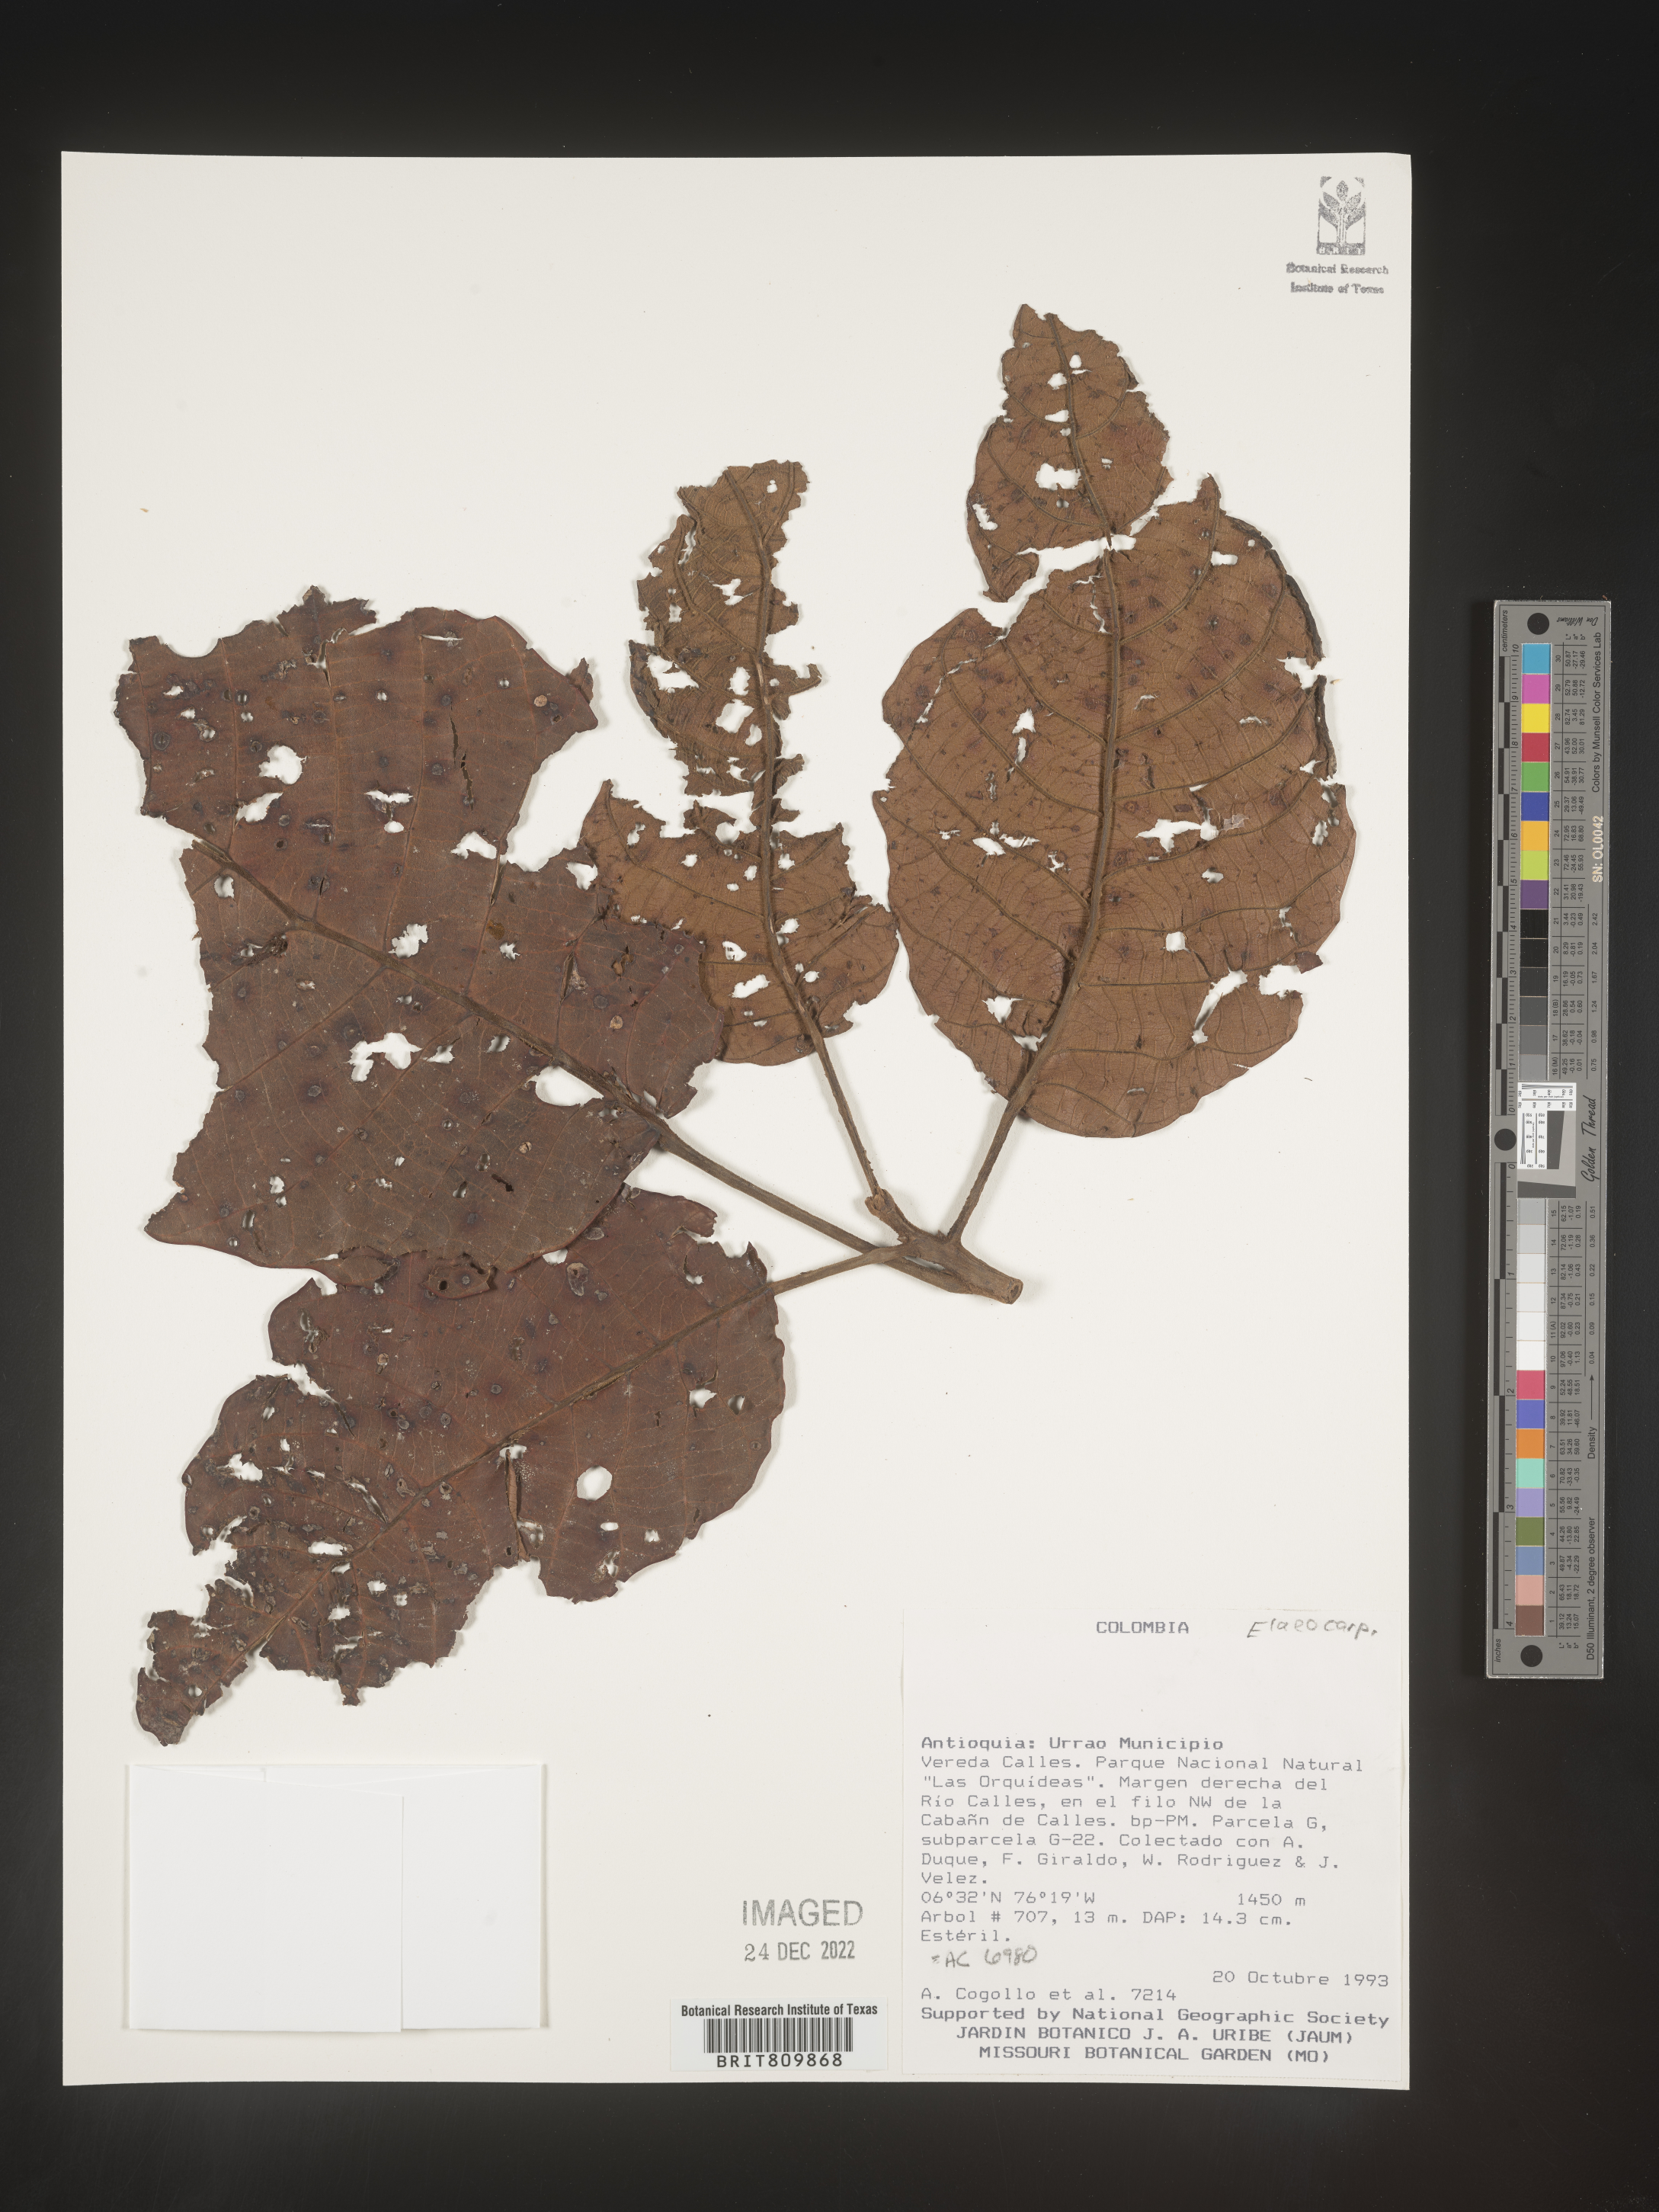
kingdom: Plantae
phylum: Tracheophyta
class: Magnoliopsida
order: Oxalidales
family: Elaeocarpaceae
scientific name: Elaeocarpaceae
